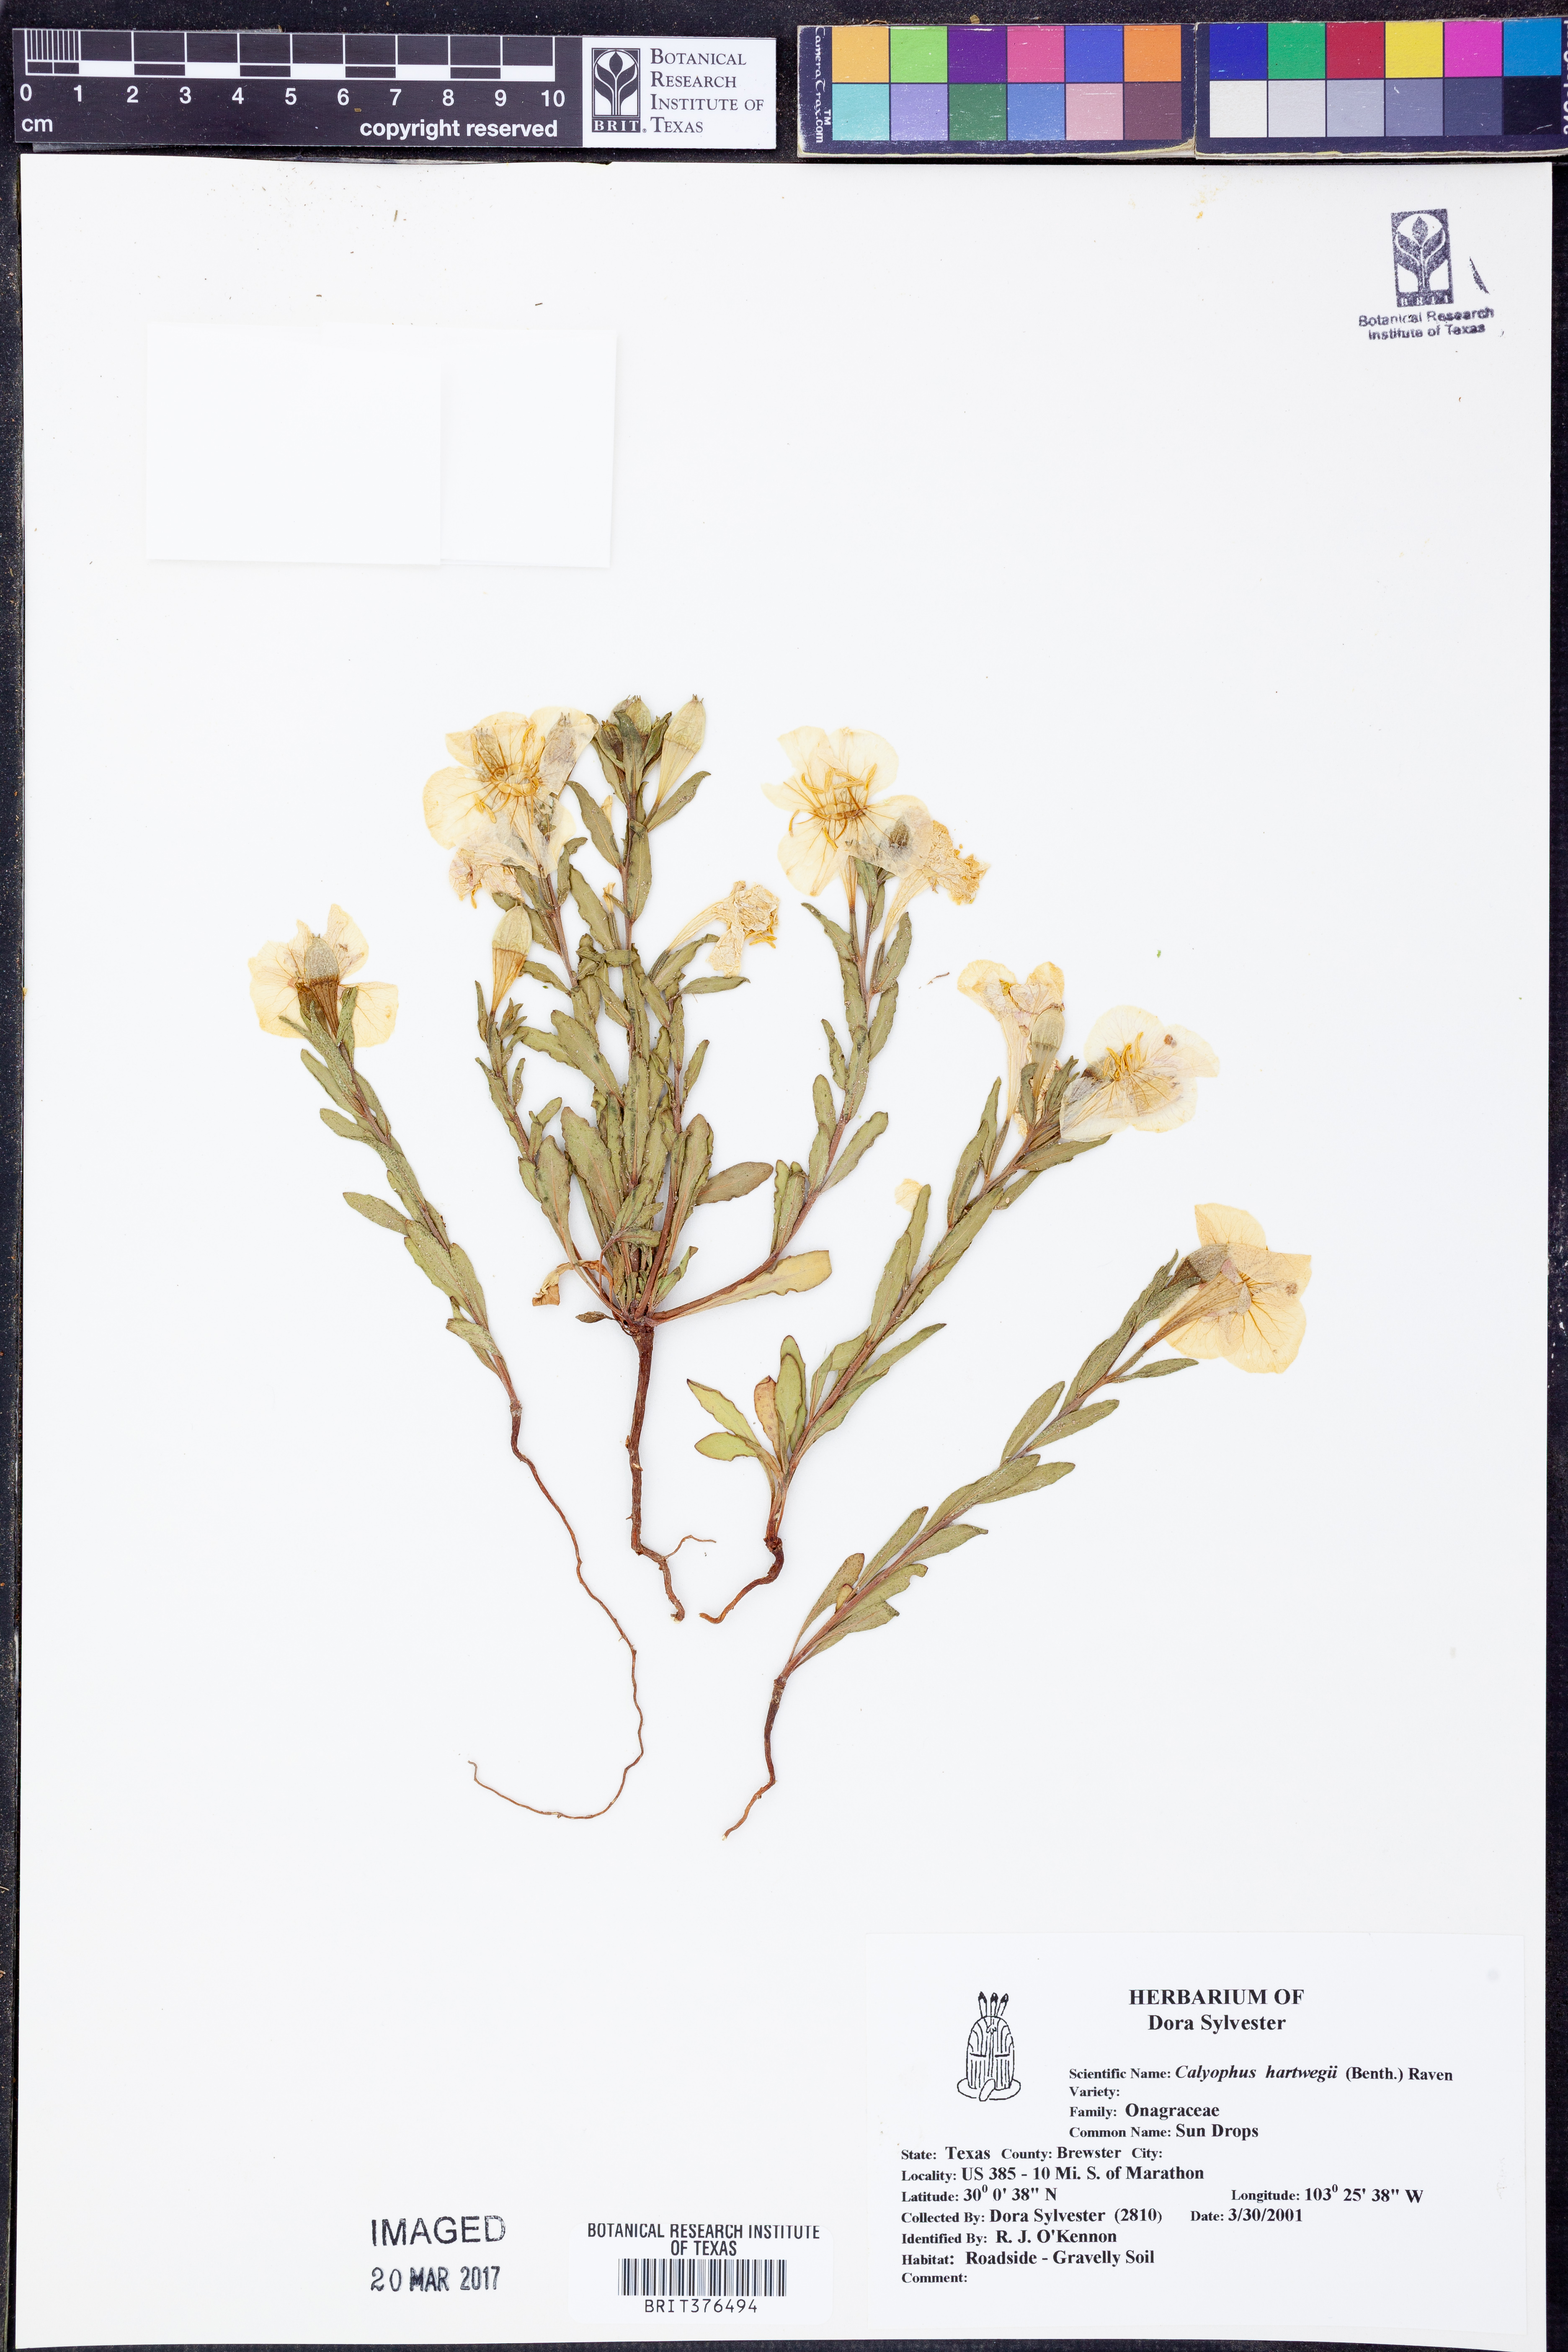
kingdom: Plantae
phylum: Tracheophyta
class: Magnoliopsida
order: Myrtales
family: Onagraceae
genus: Oenothera
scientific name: Oenothera hartwegii
